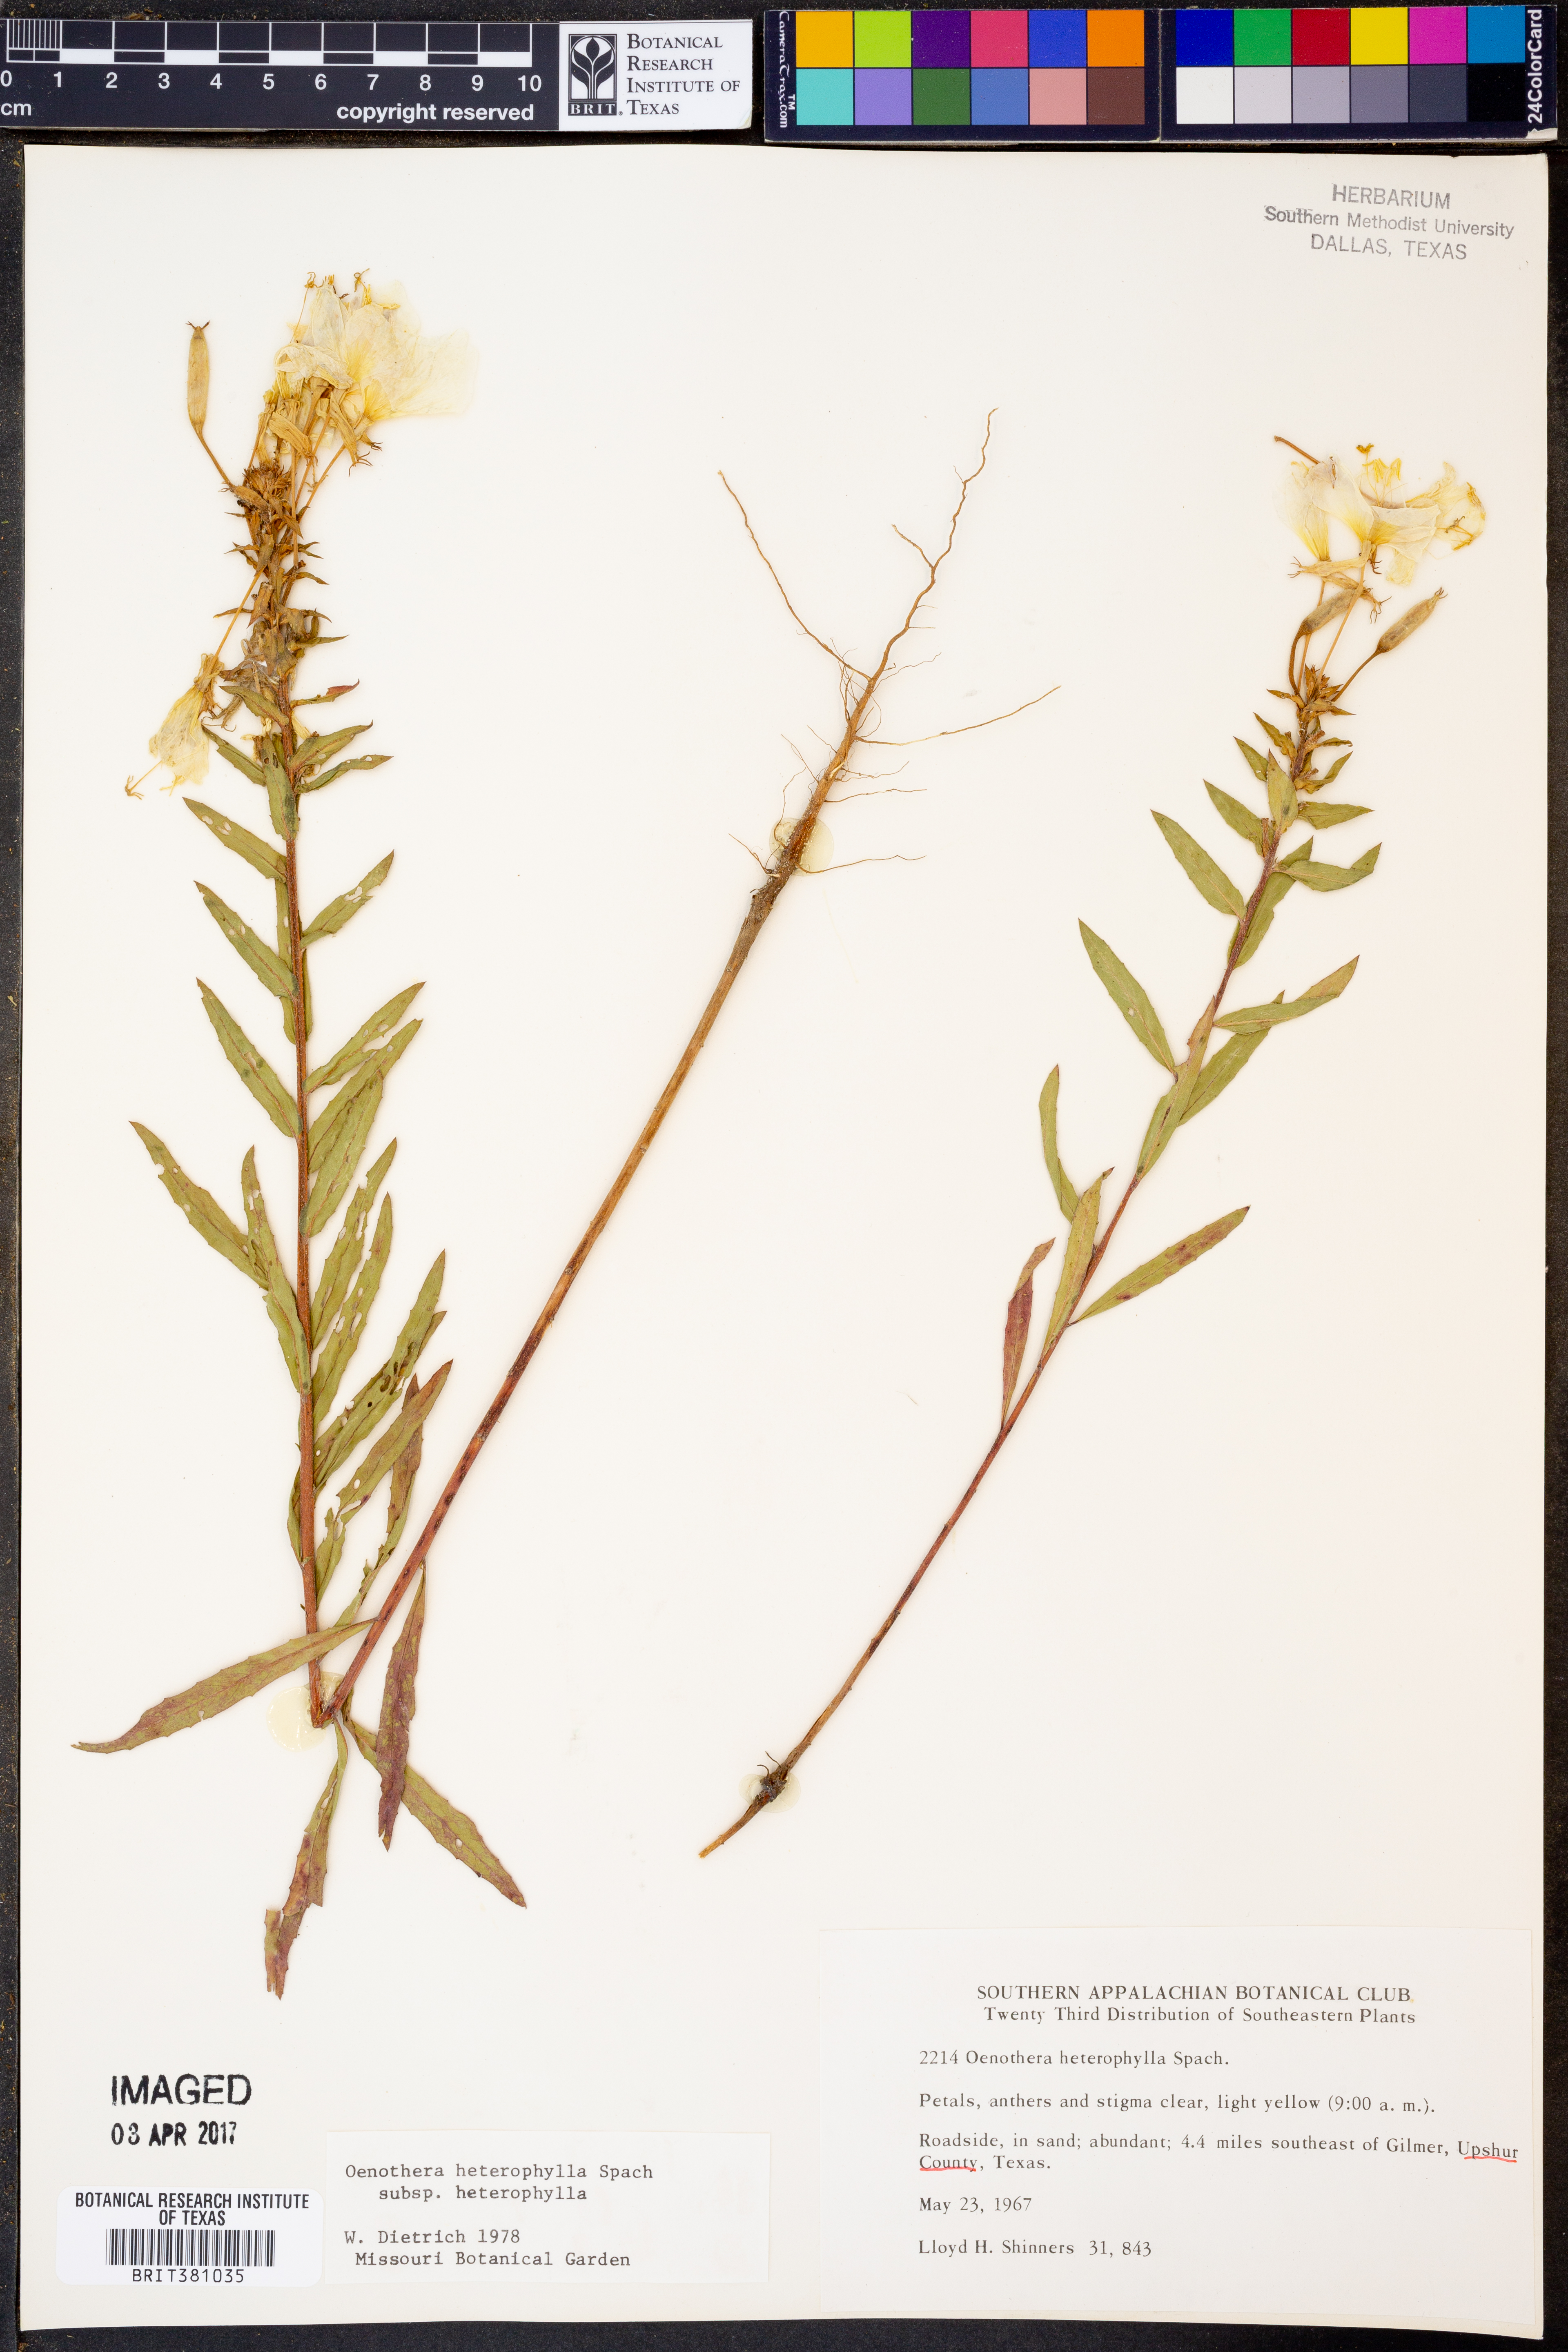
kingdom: Plantae
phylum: Tracheophyta
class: Magnoliopsida
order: Myrtales
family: Onagraceae
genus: Camissonia
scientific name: Camissonia dentata
